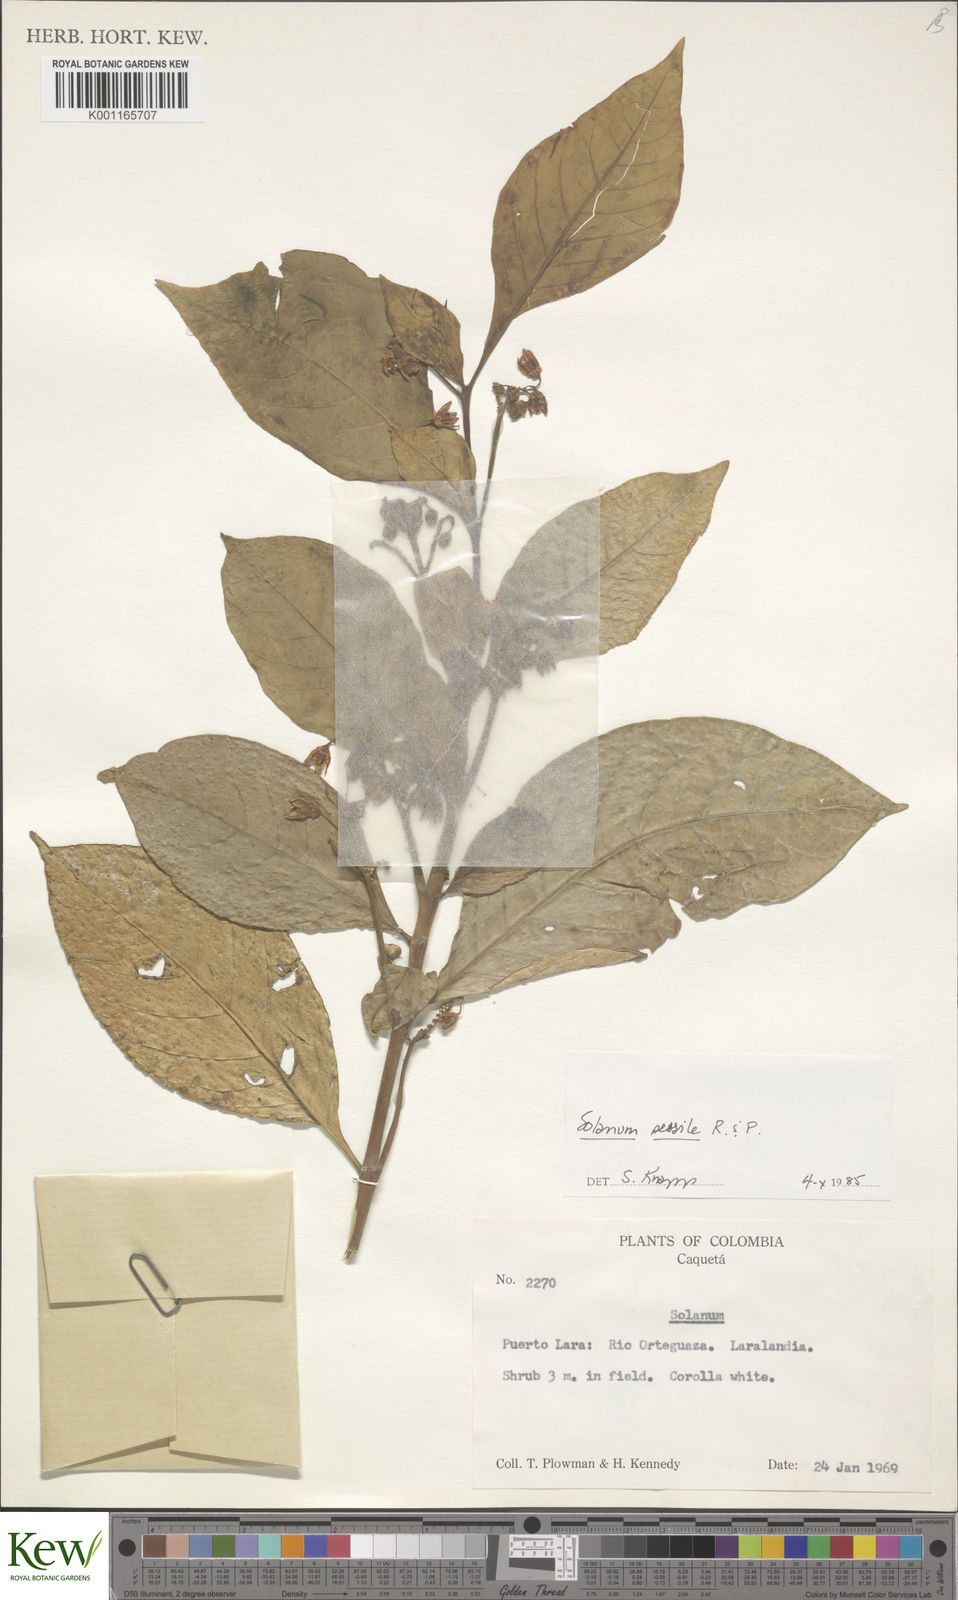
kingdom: Plantae
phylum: Tracheophyta
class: Magnoliopsida
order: Solanales
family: Solanaceae
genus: Solanum
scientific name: Solanum sessile
